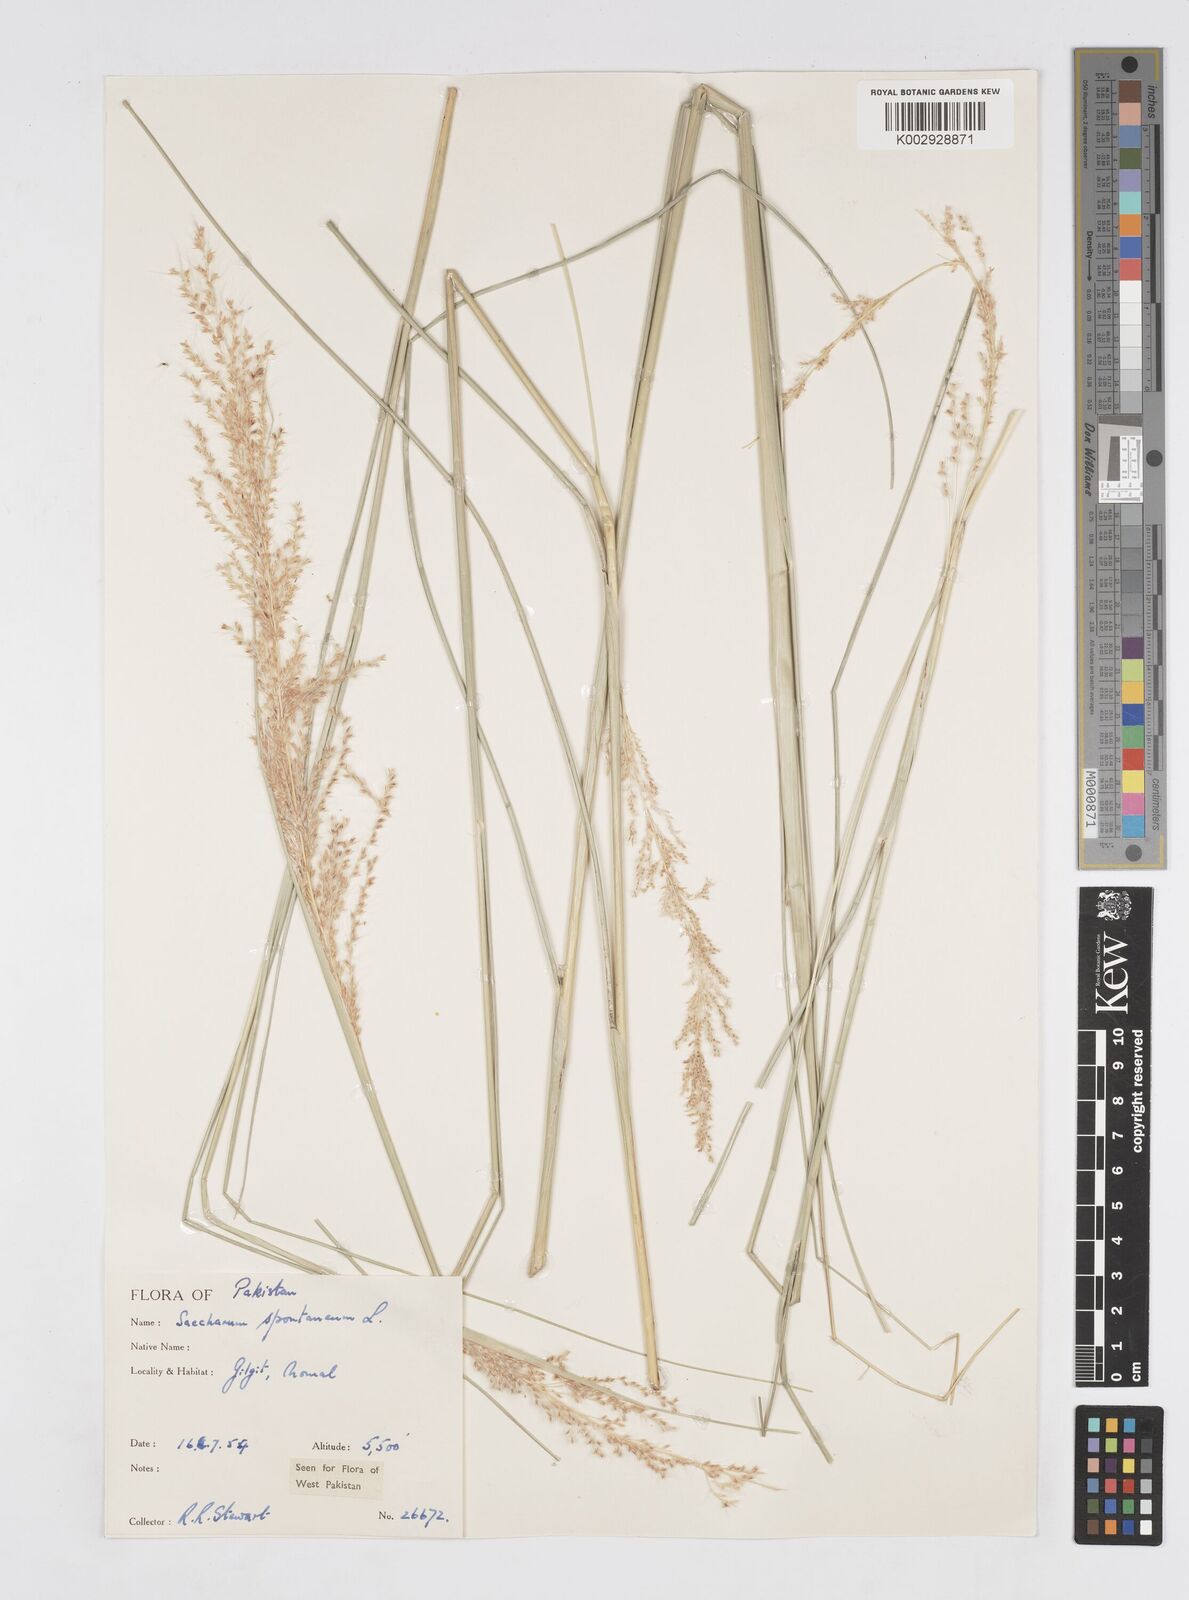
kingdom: Plantae
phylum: Tracheophyta
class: Liliopsida
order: Poales
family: Poaceae
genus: Saccharum
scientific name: Saccharum spontaneum
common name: Wild sugarcane
